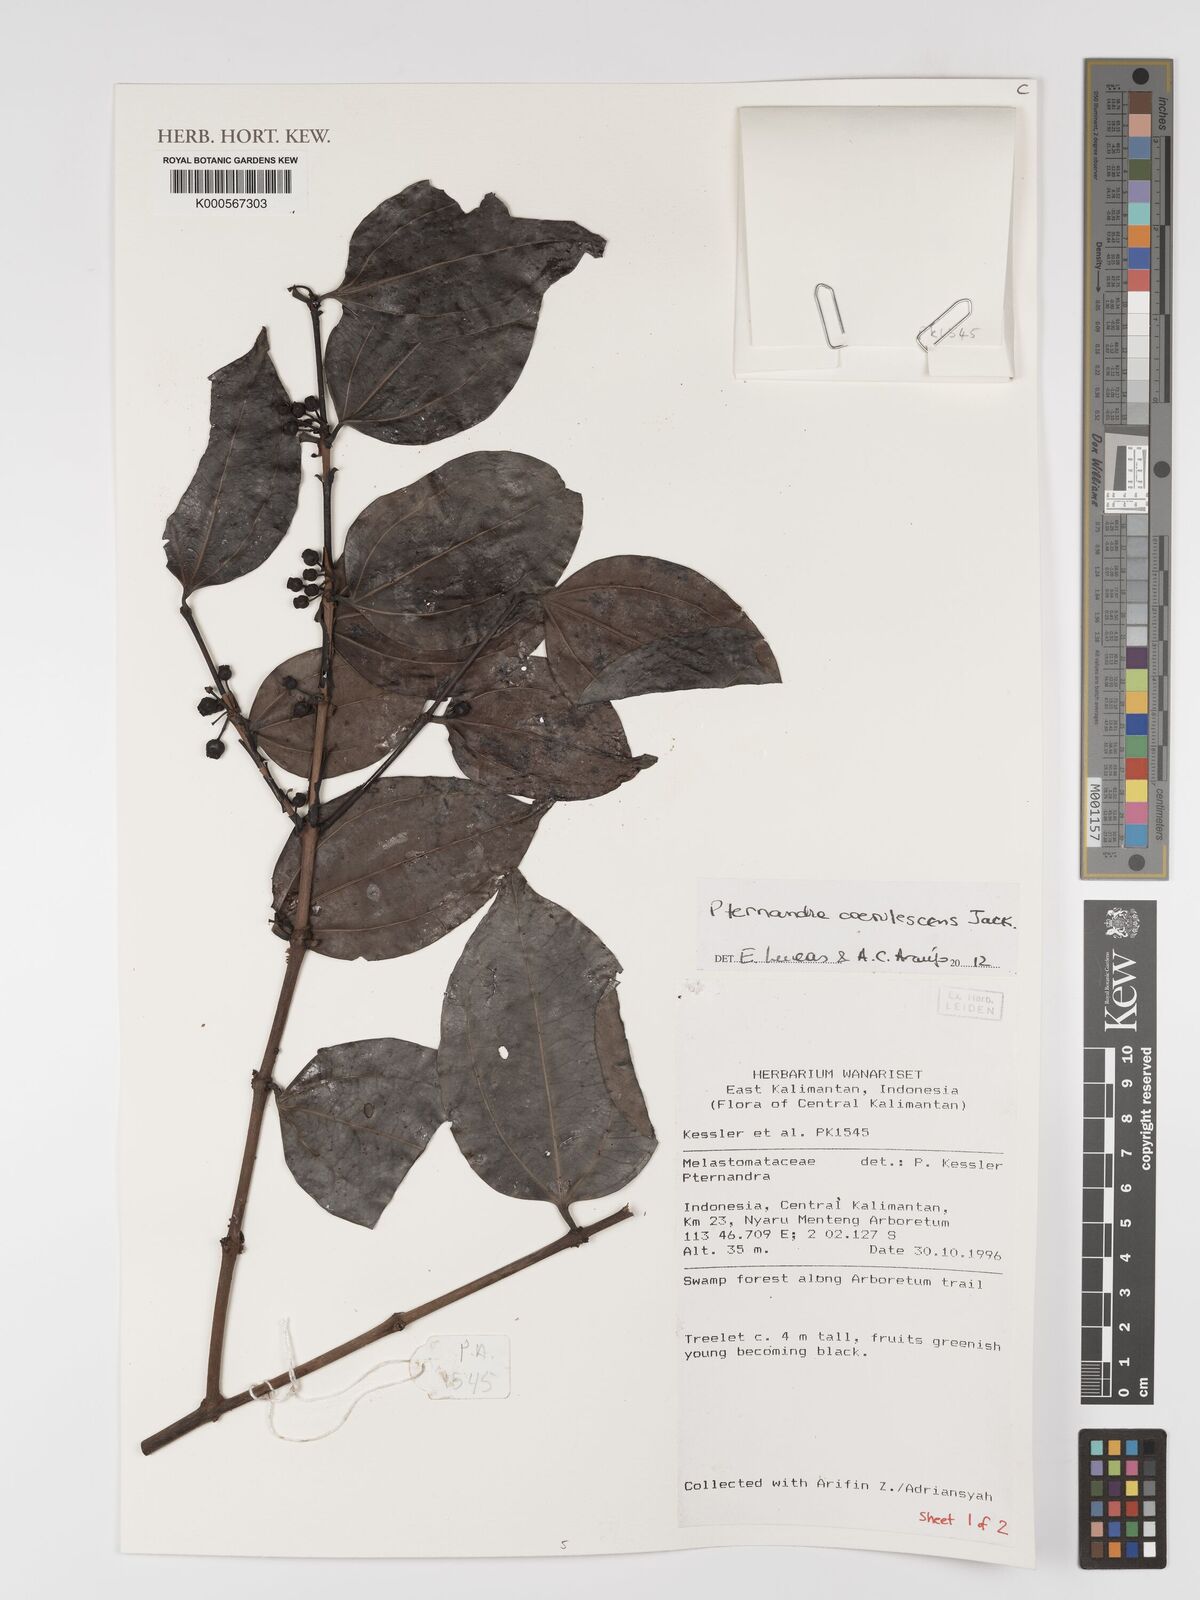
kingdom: Plantae
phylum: Tracheophyta
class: Magnoliopsida
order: Myrtales
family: Melastomataceae
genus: Pternandra
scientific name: Pternandra
